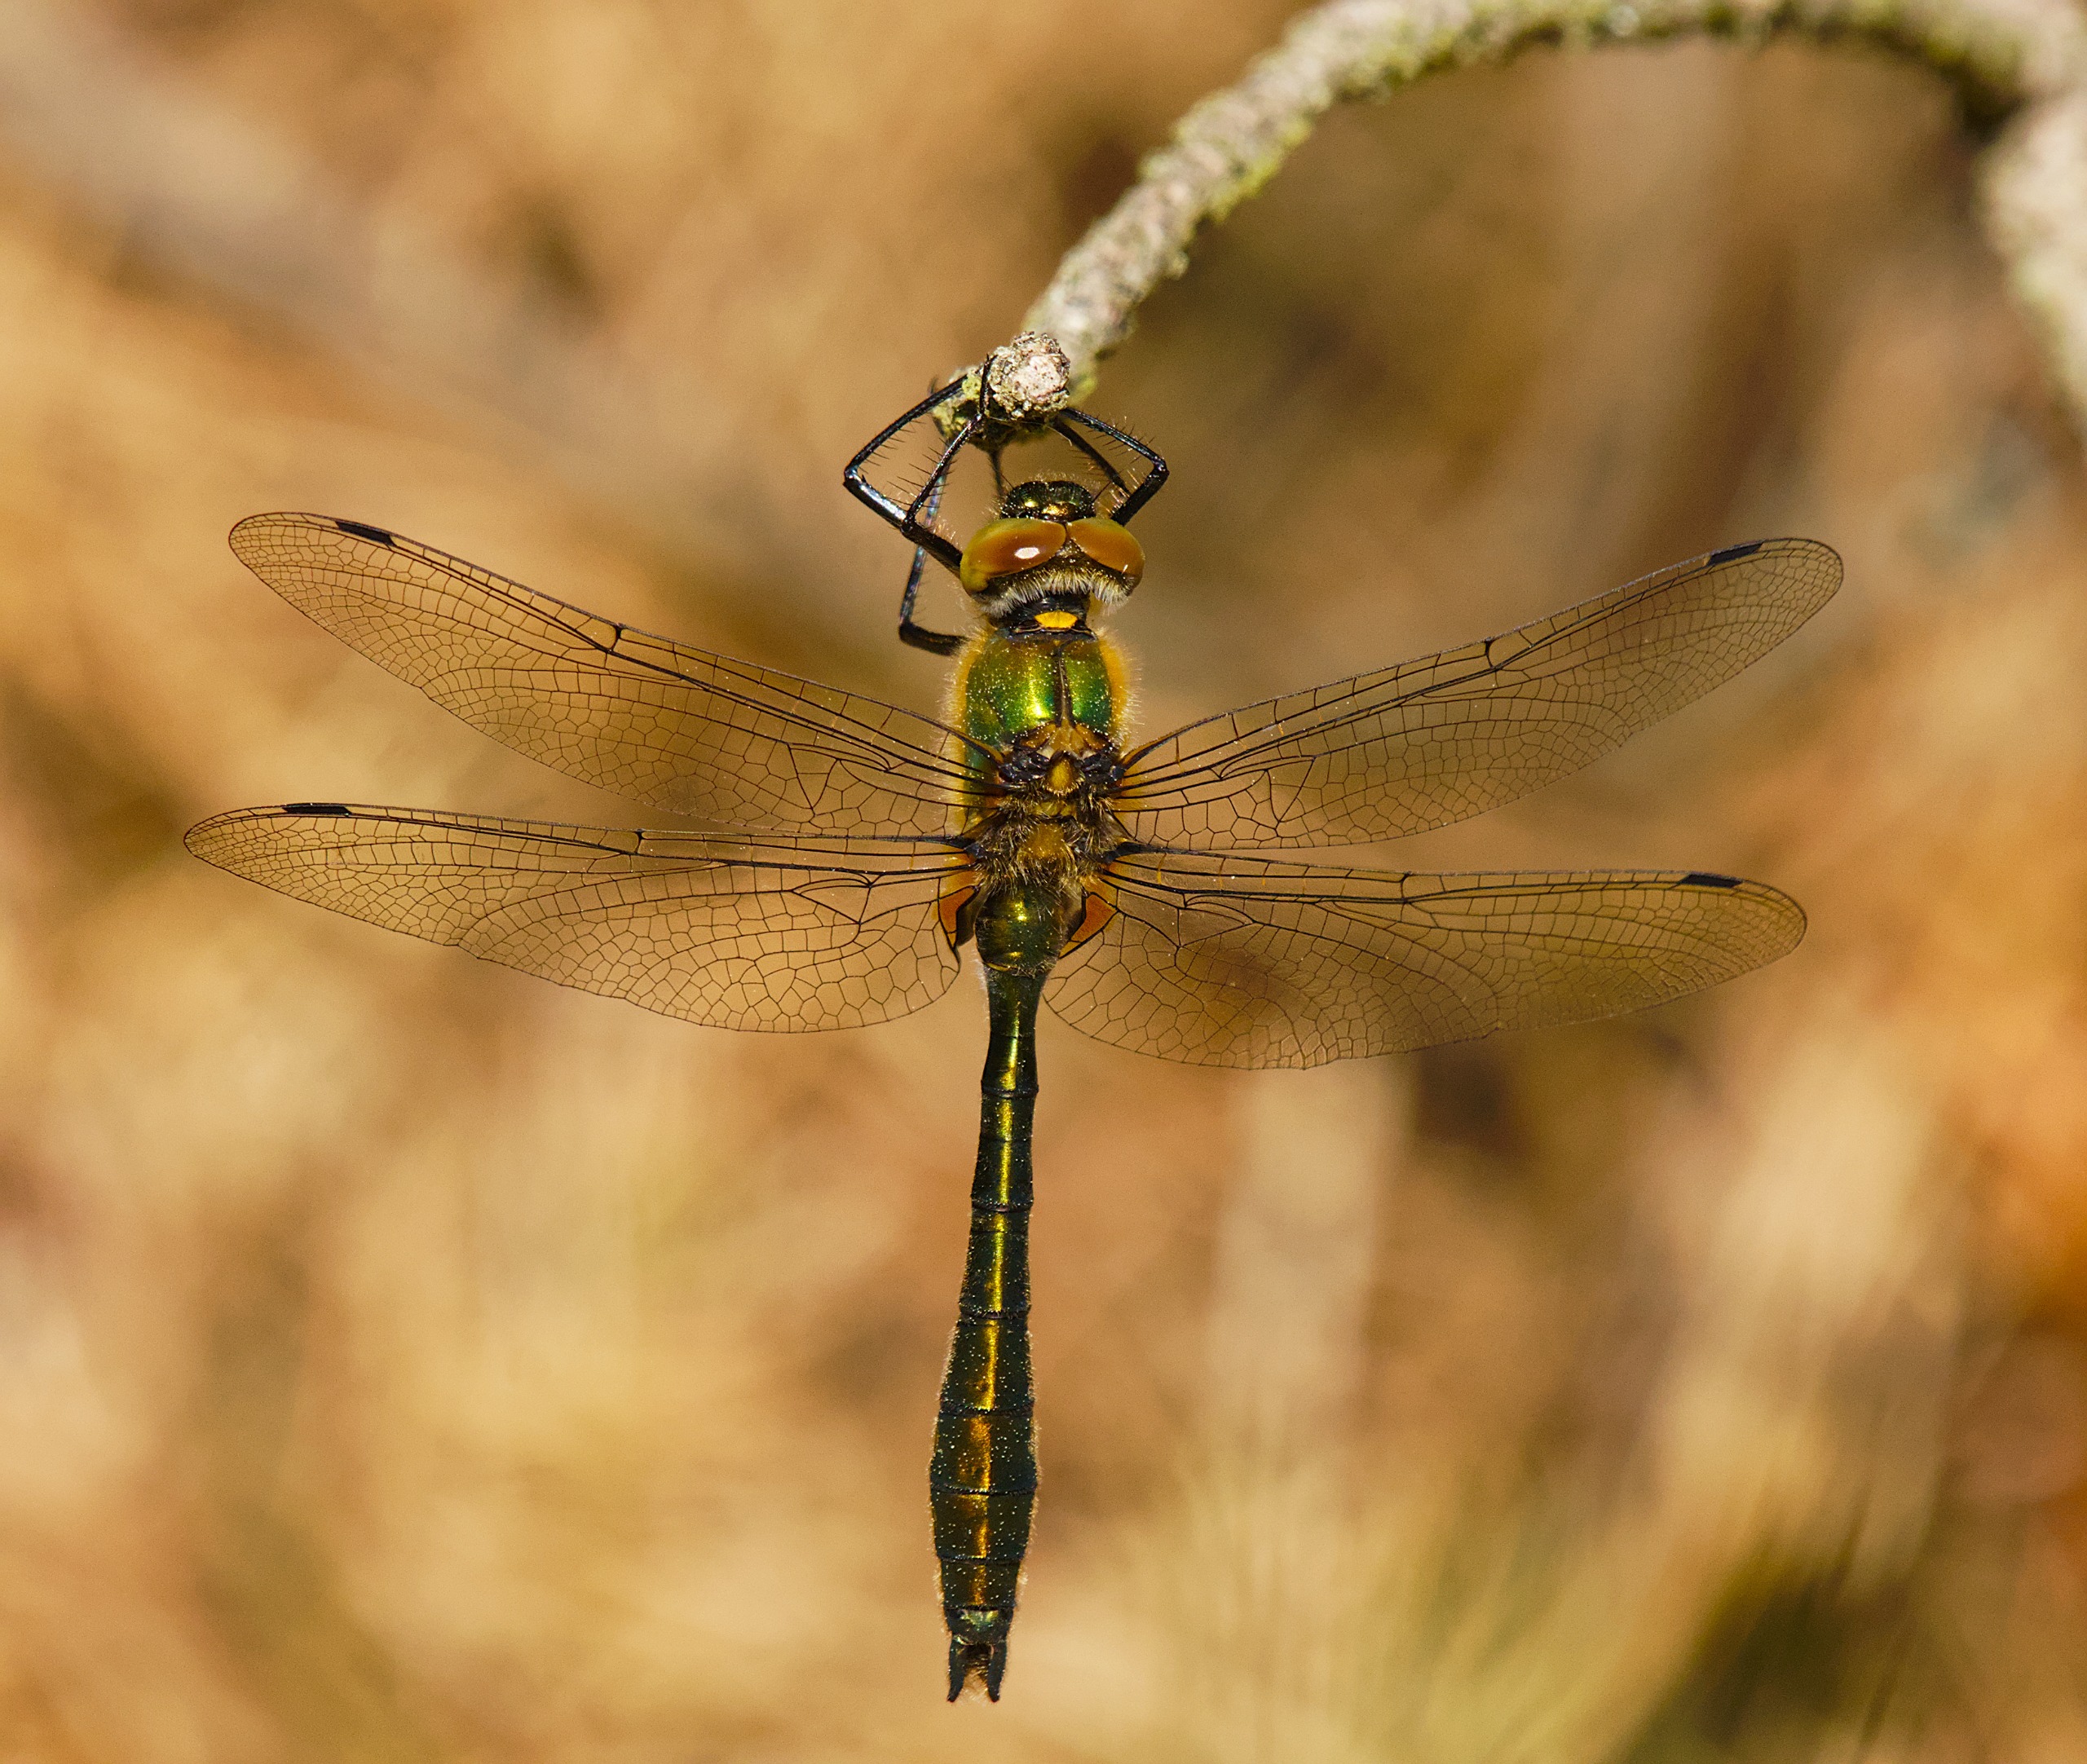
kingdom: Animalia
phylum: Arthropoda
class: Insecta
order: Odonata
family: Corduliidae
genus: Cordulia
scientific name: Cordulia aenea
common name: Grøn smaragdlibel
